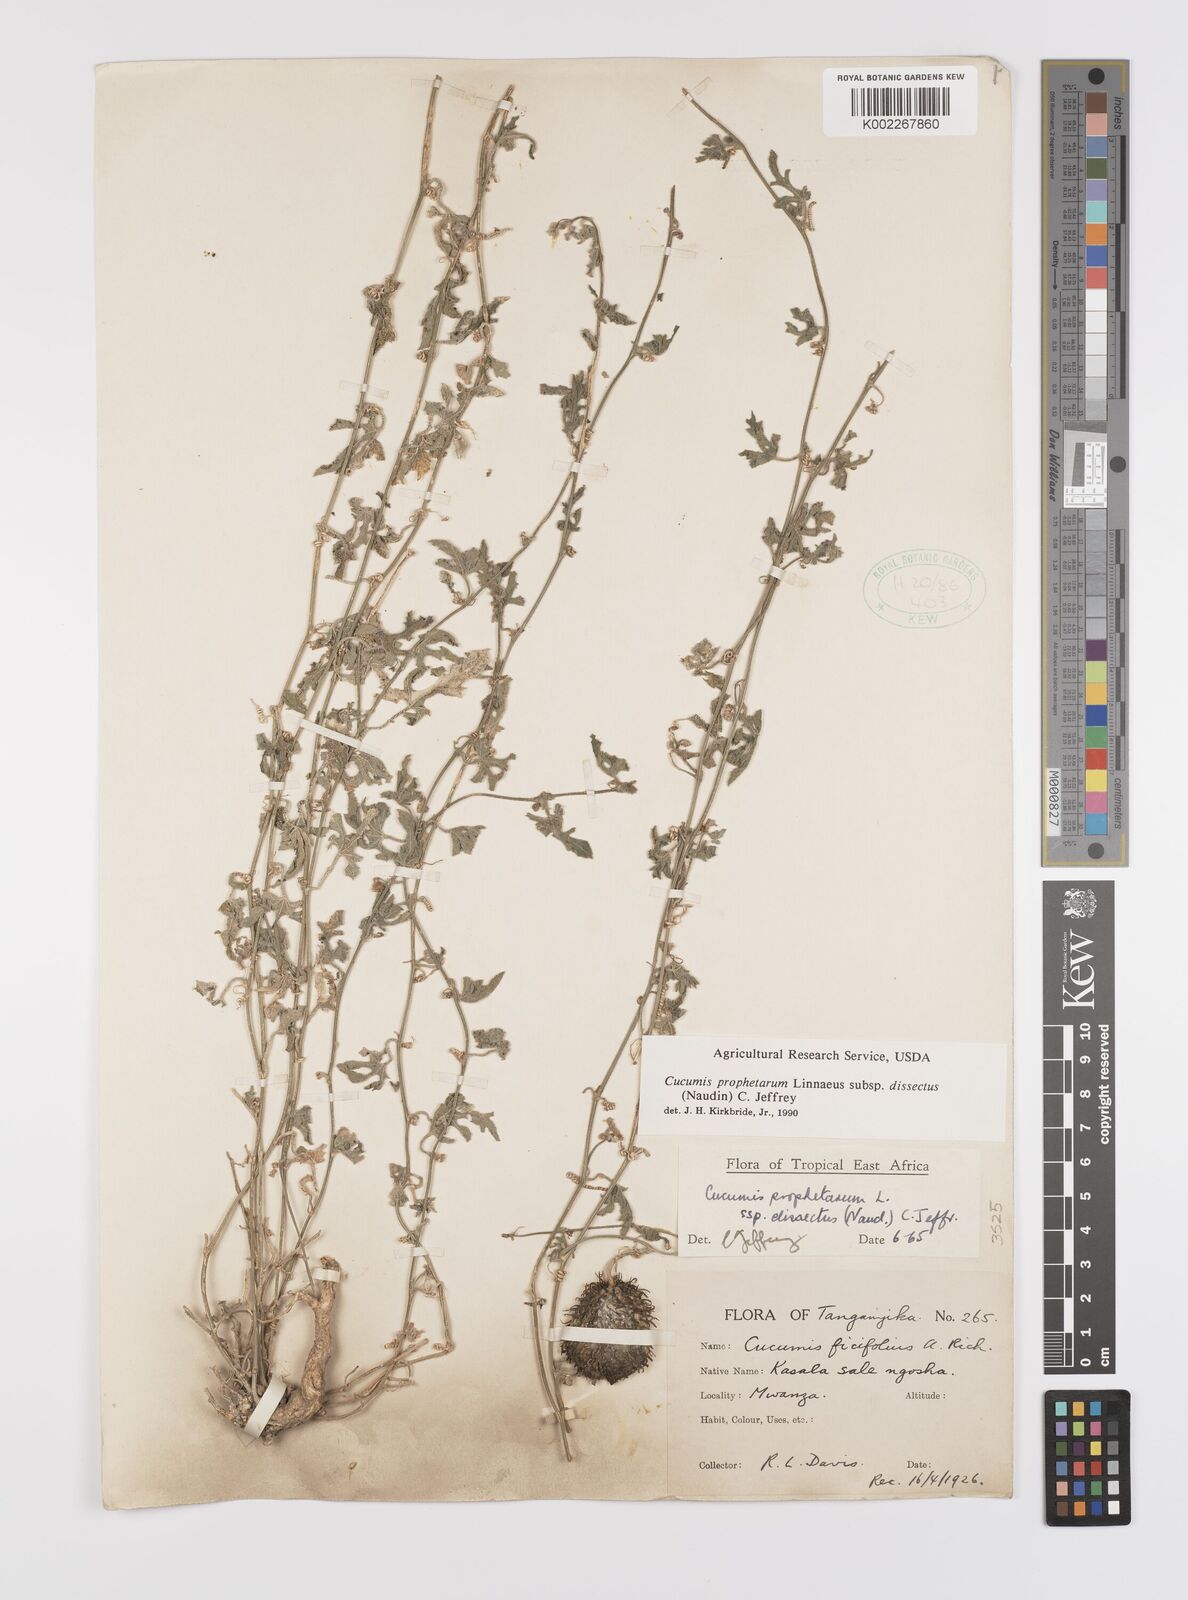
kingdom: Plantae
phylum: Tracheophyta
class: Magnoliopsida
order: Cucurbitales
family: Cucurbitaceae
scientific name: Cucurbitaceae
